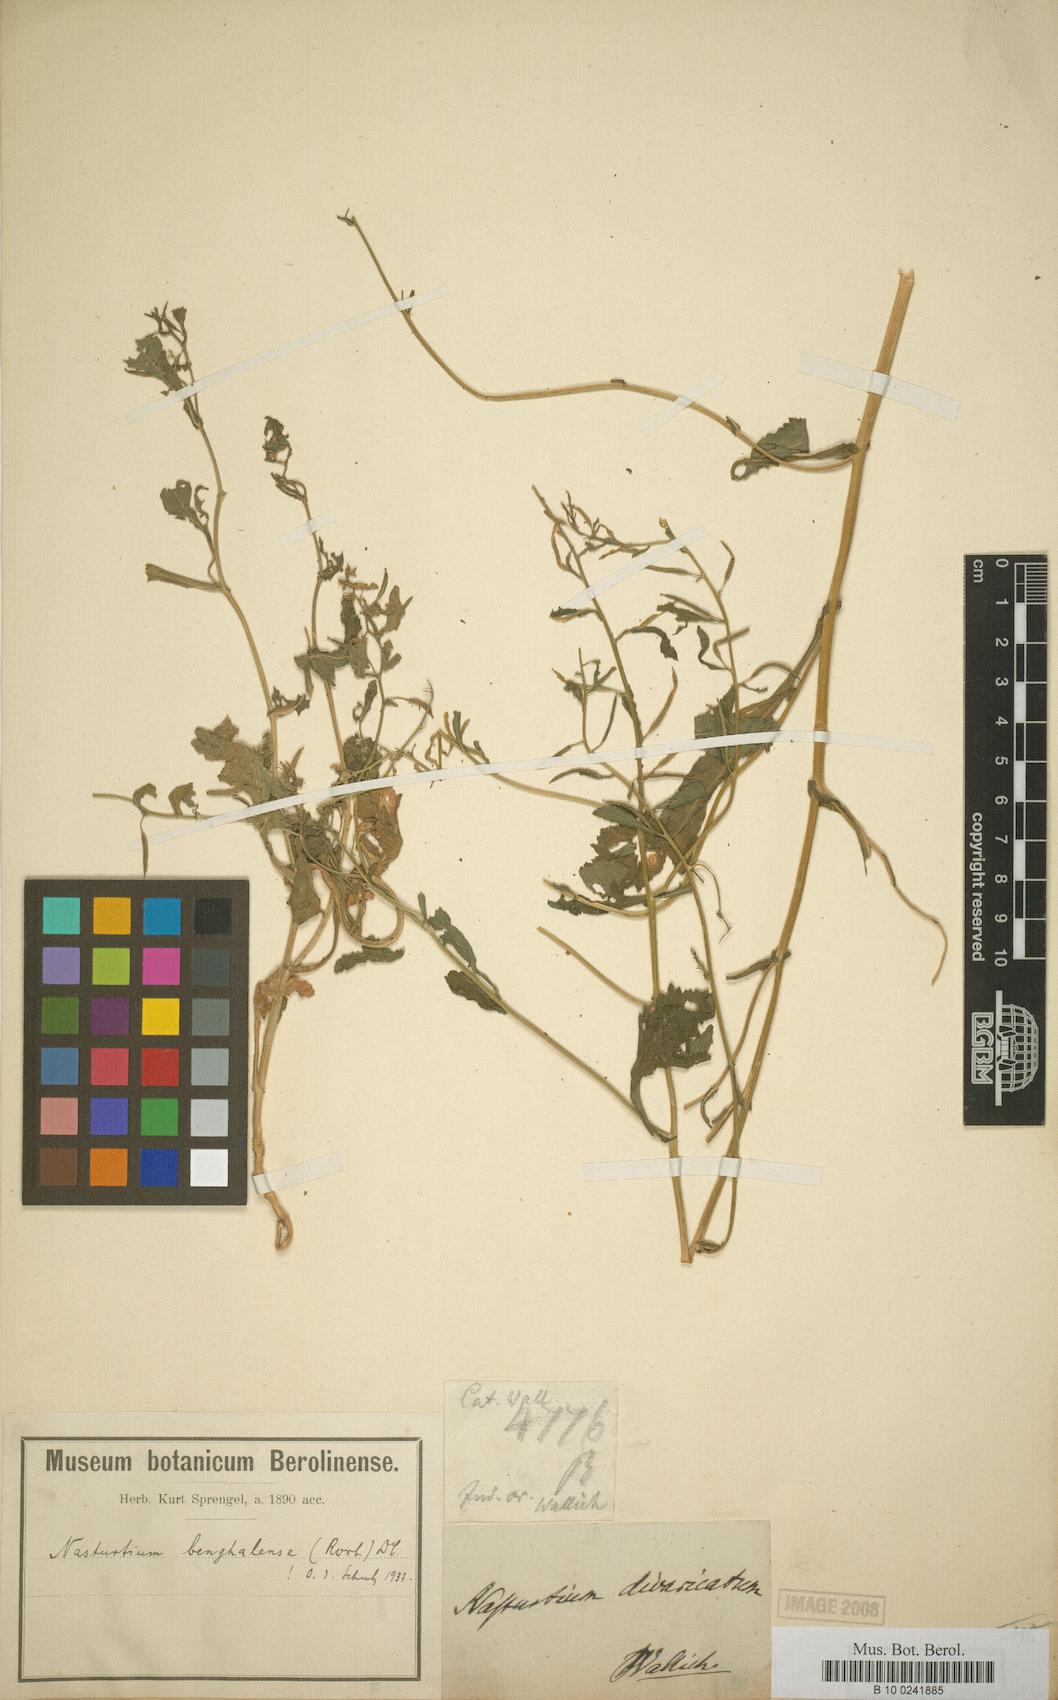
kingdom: Plantae
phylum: Tracheophyta
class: Magnoliopsida
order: Brassicales
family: Brassicaceae
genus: Rorippa
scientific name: Rorippa benghalensis
